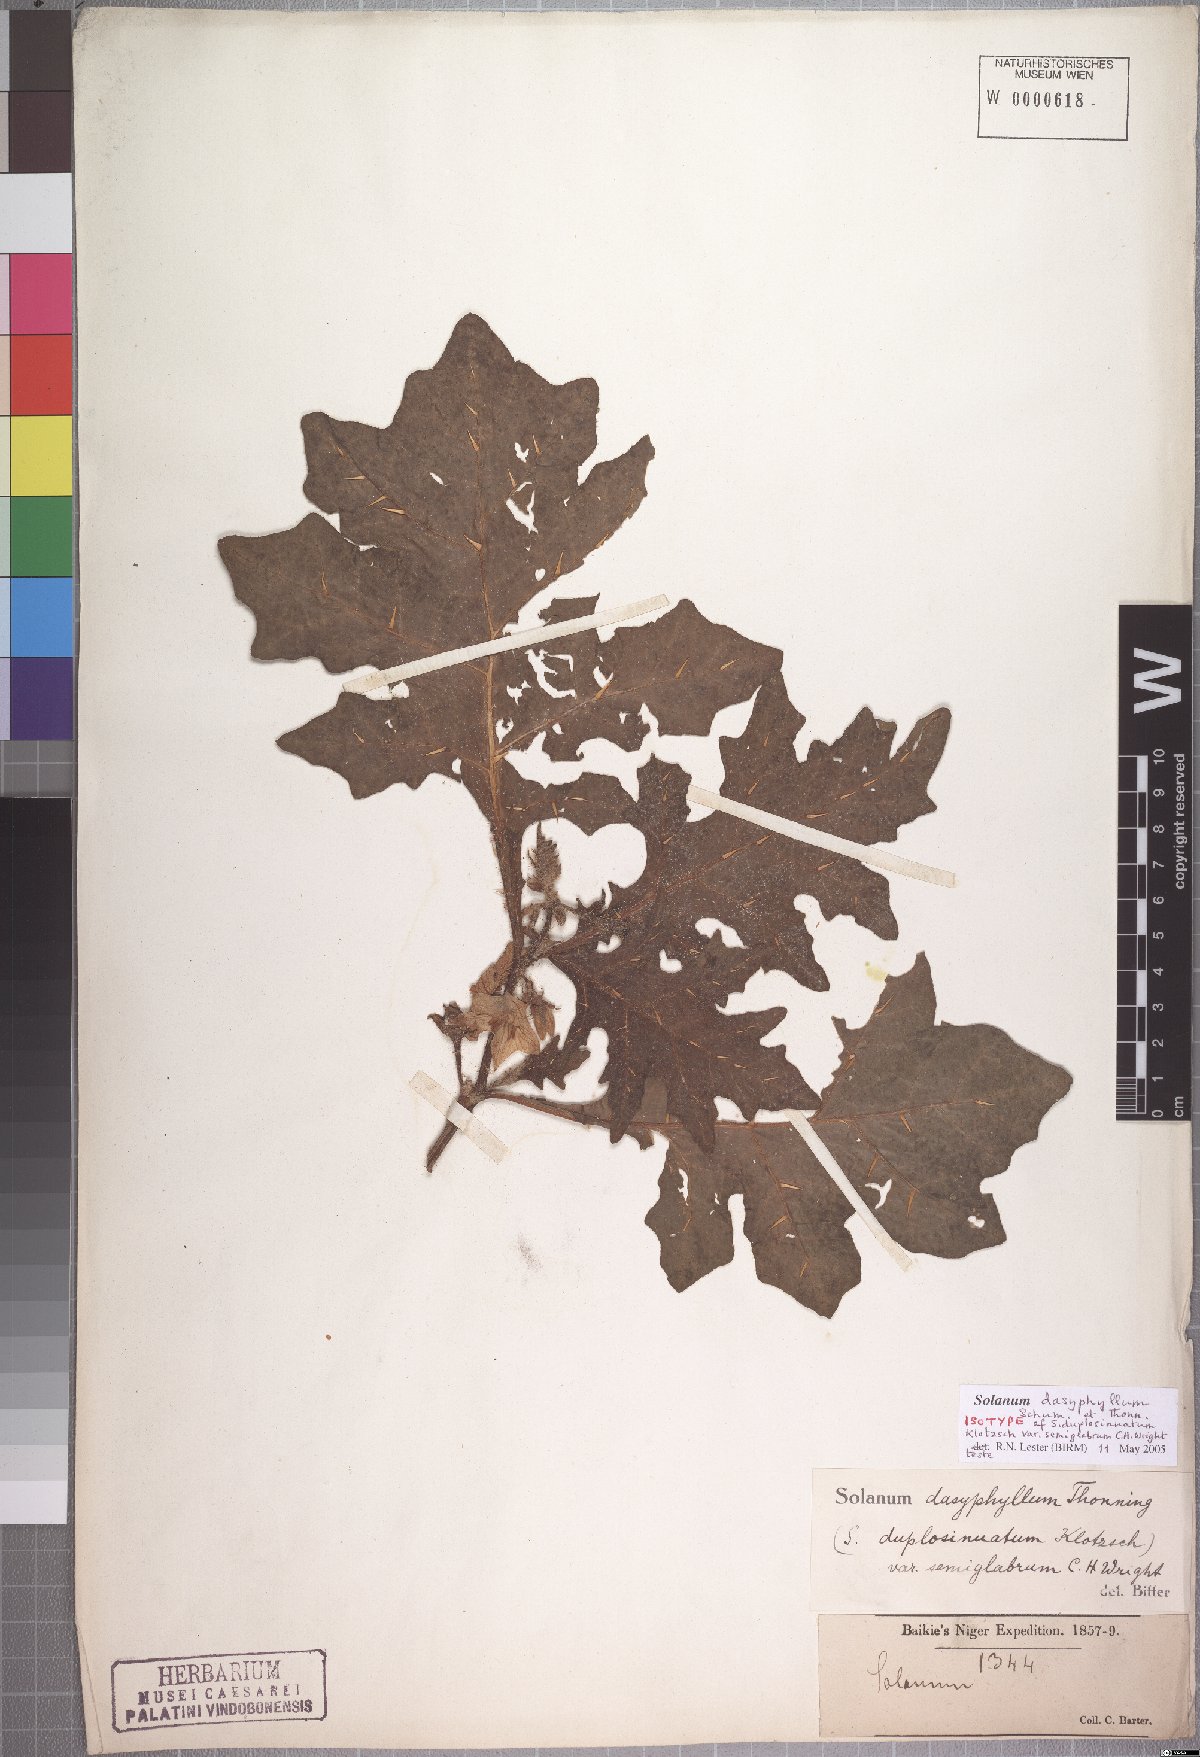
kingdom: Plantae
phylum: Tracheophyta
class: Magnoliopsida
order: Solanales
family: Solanaceae
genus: Solanum
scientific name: Solanum
